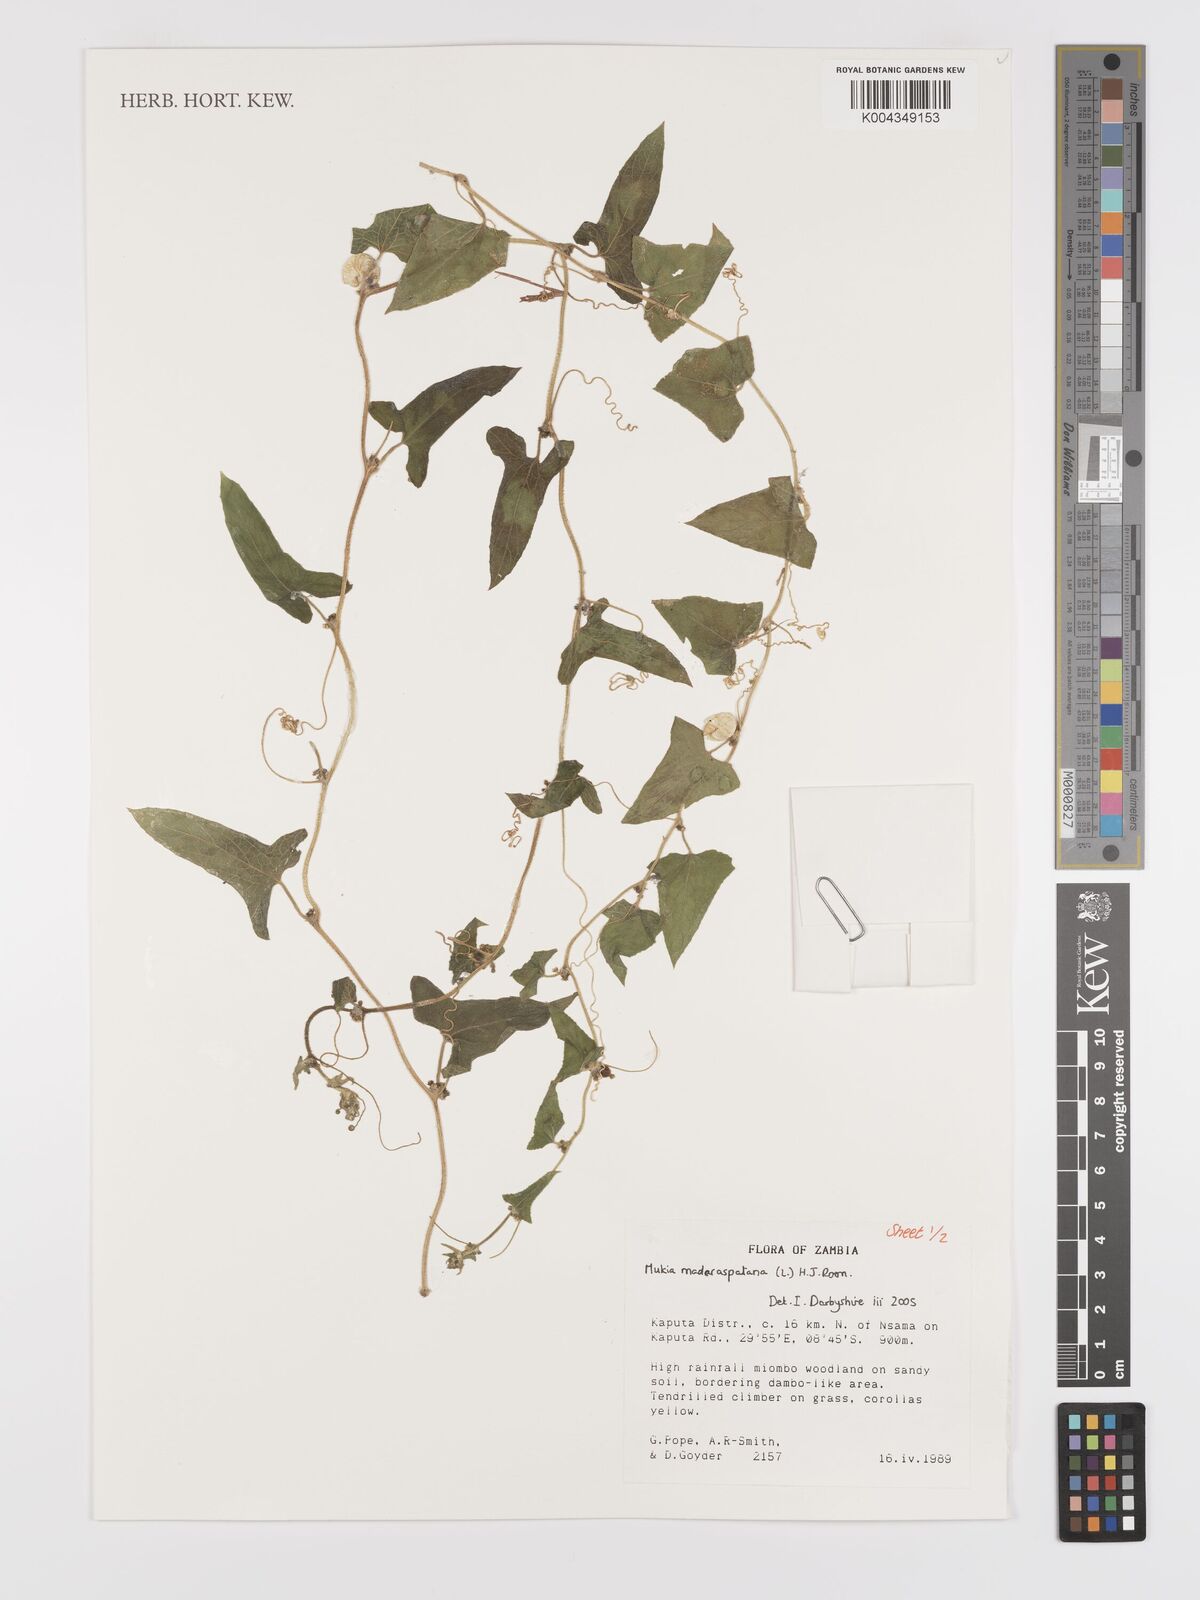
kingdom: Plantae
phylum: Tracheophyta
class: Magnoliopsida
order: Cucurbitales
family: Cucurbitaceae
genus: Cucumis
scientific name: Cucumis maderaspatanus
